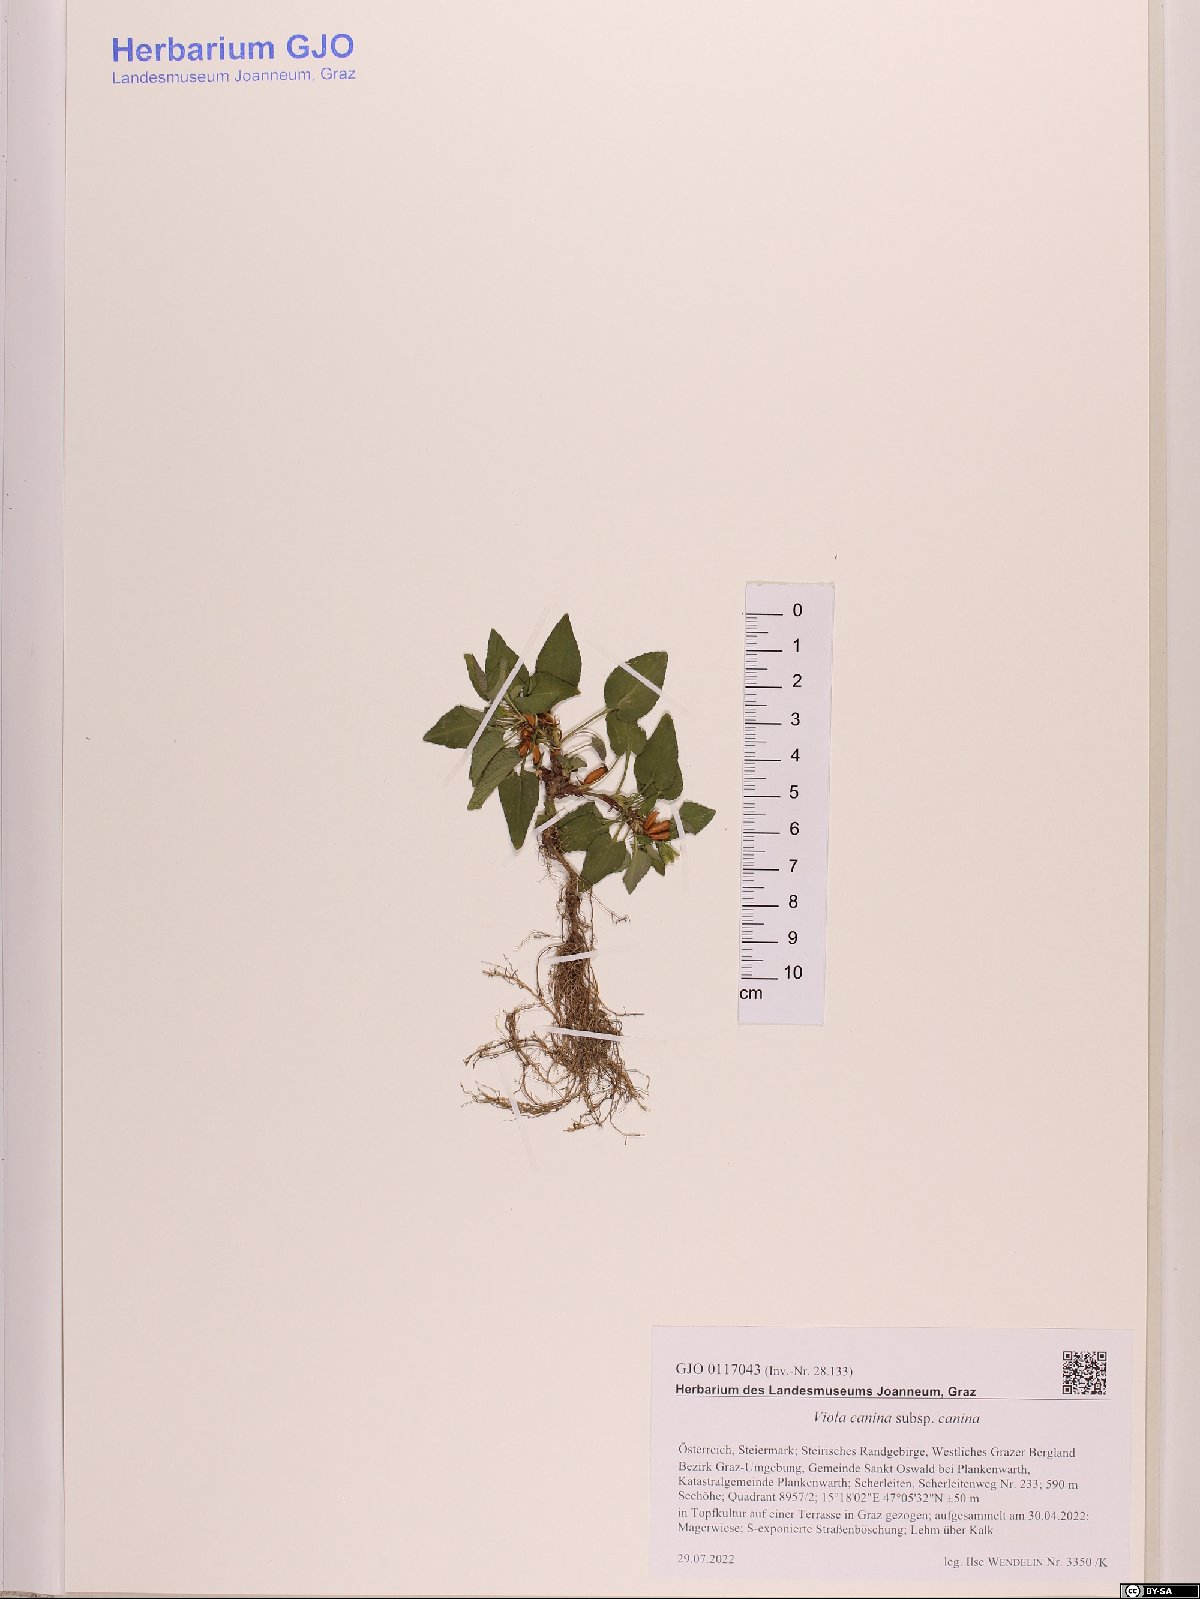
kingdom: Plantae
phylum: Tracheophyta
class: Magnoliopsida
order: Malpighiales
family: Violaceae
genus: Viola
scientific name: Viola canina
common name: Heath dog-violet
